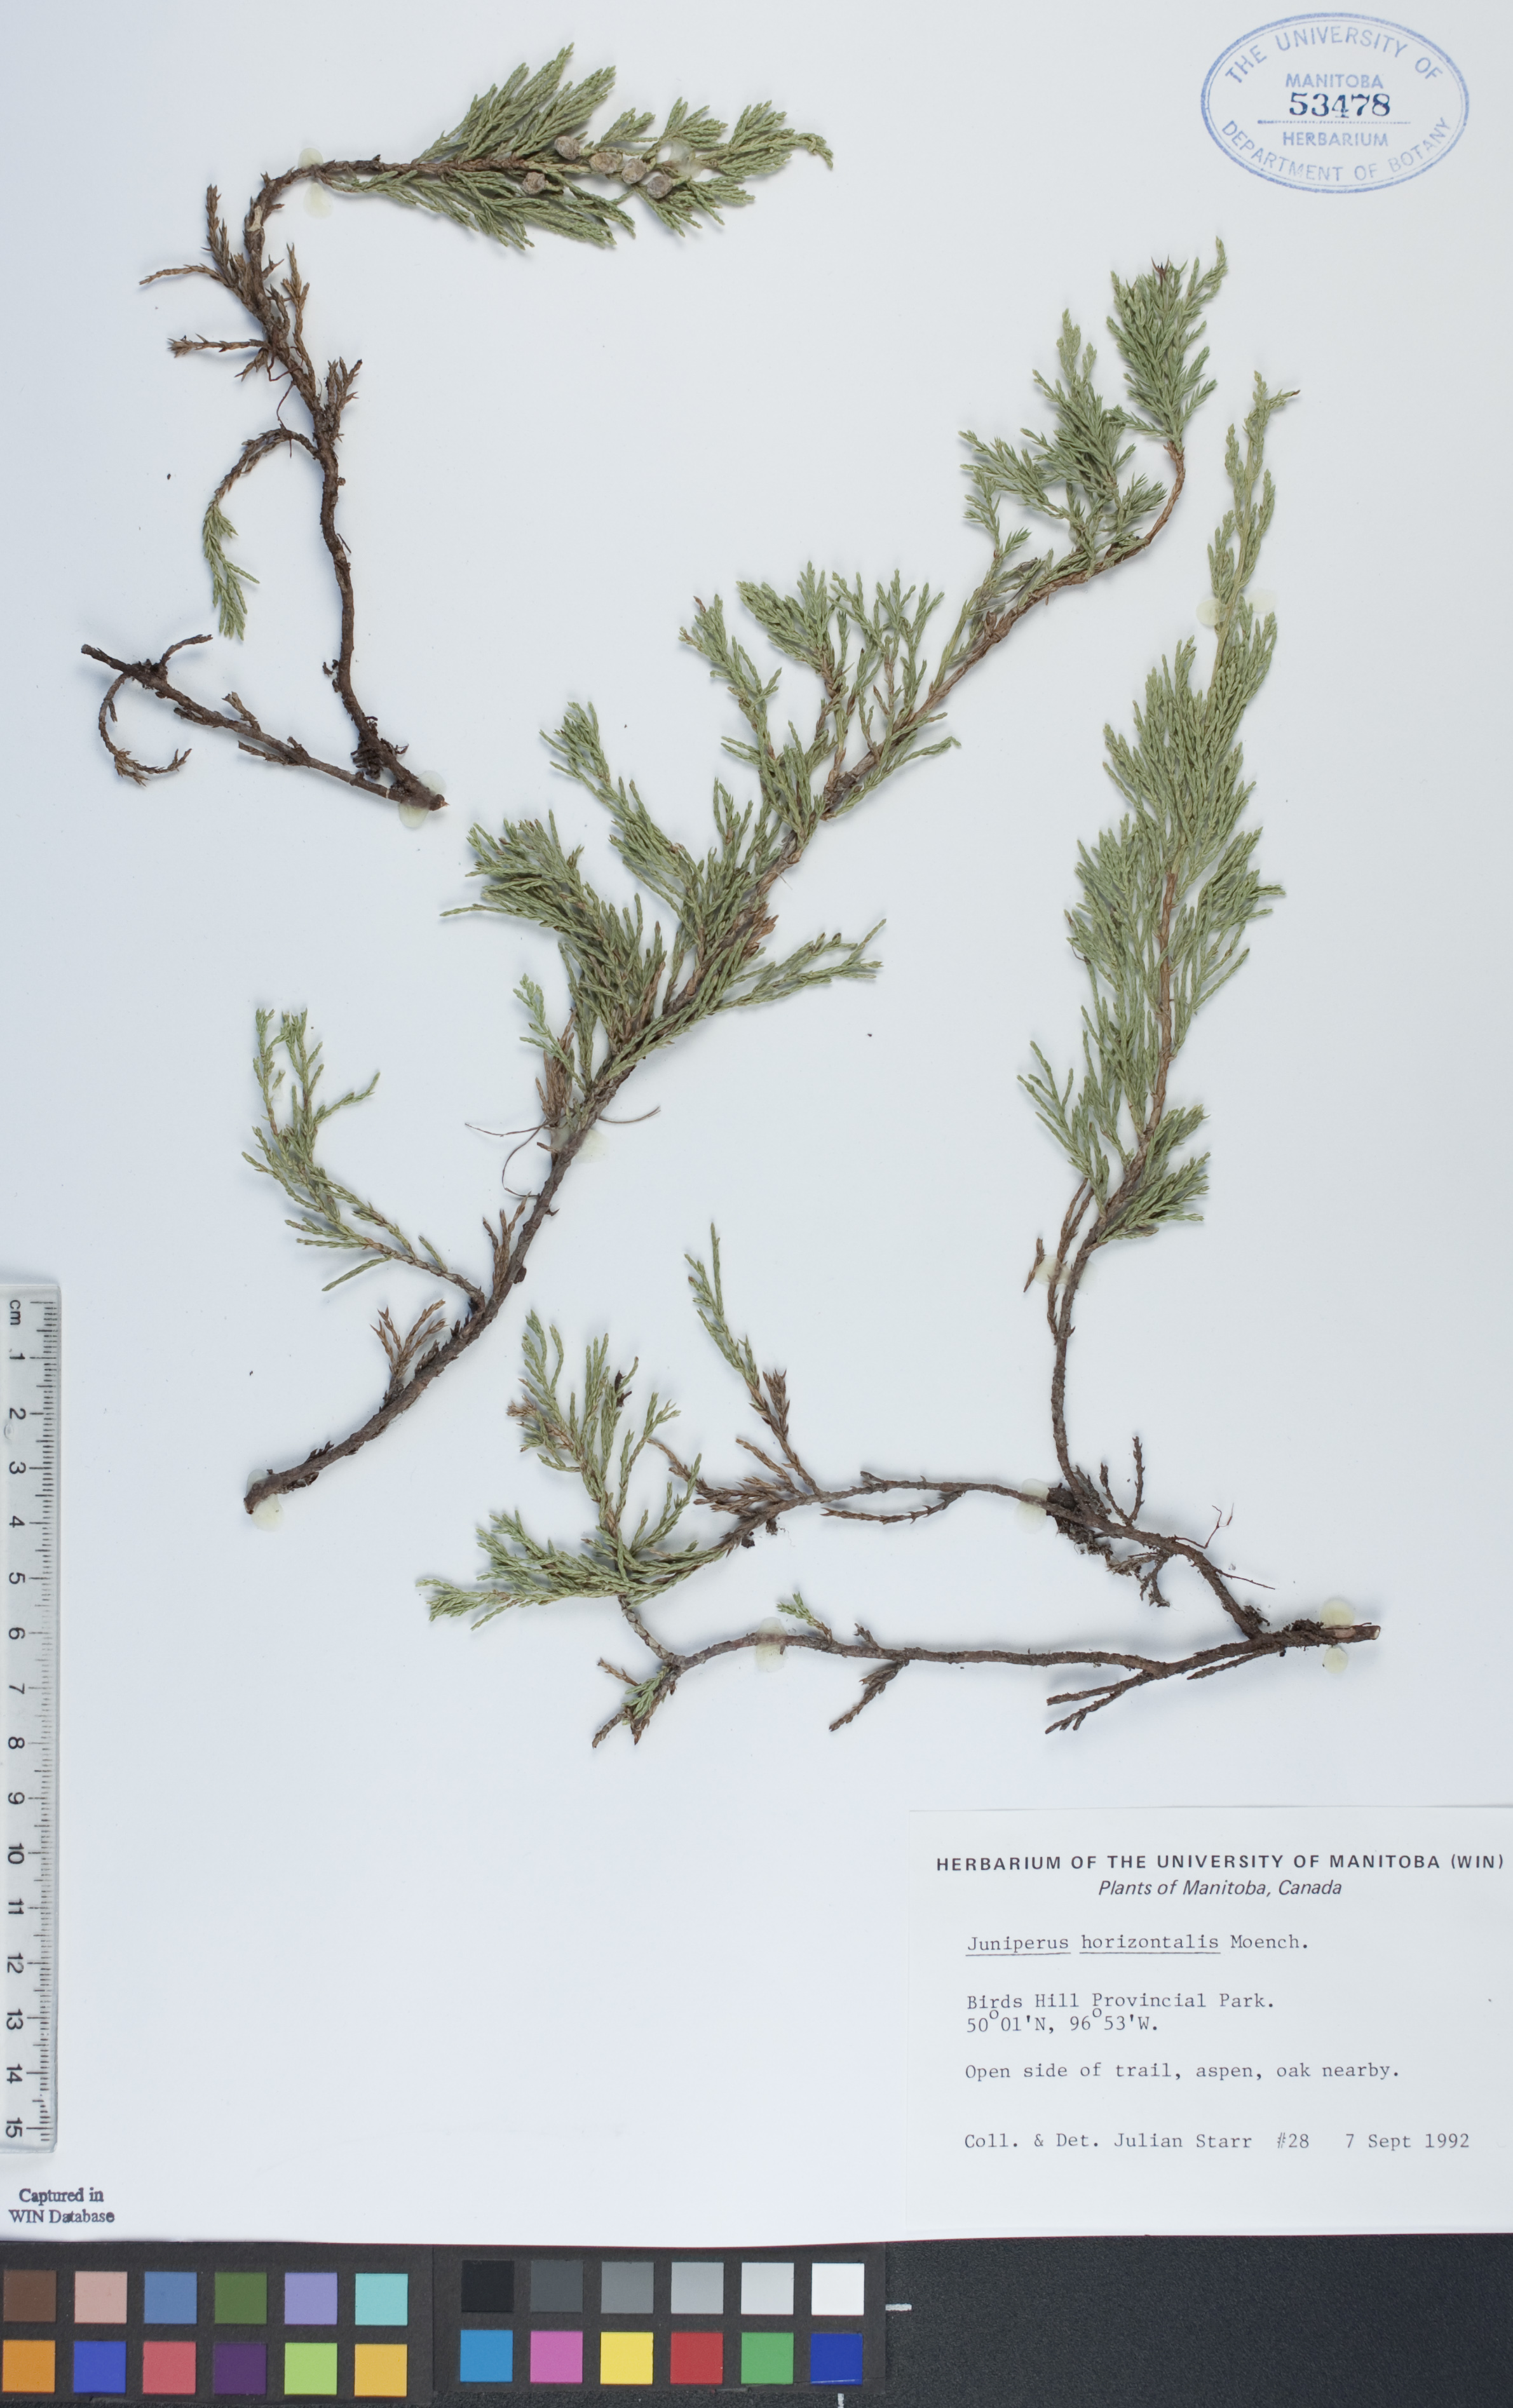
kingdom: Plantae
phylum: Tracheophyta
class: Pinopsida
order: Pinales
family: Cupressaceae
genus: Juniperus
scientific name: Juniperus horizontalis
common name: Creeping juniper
